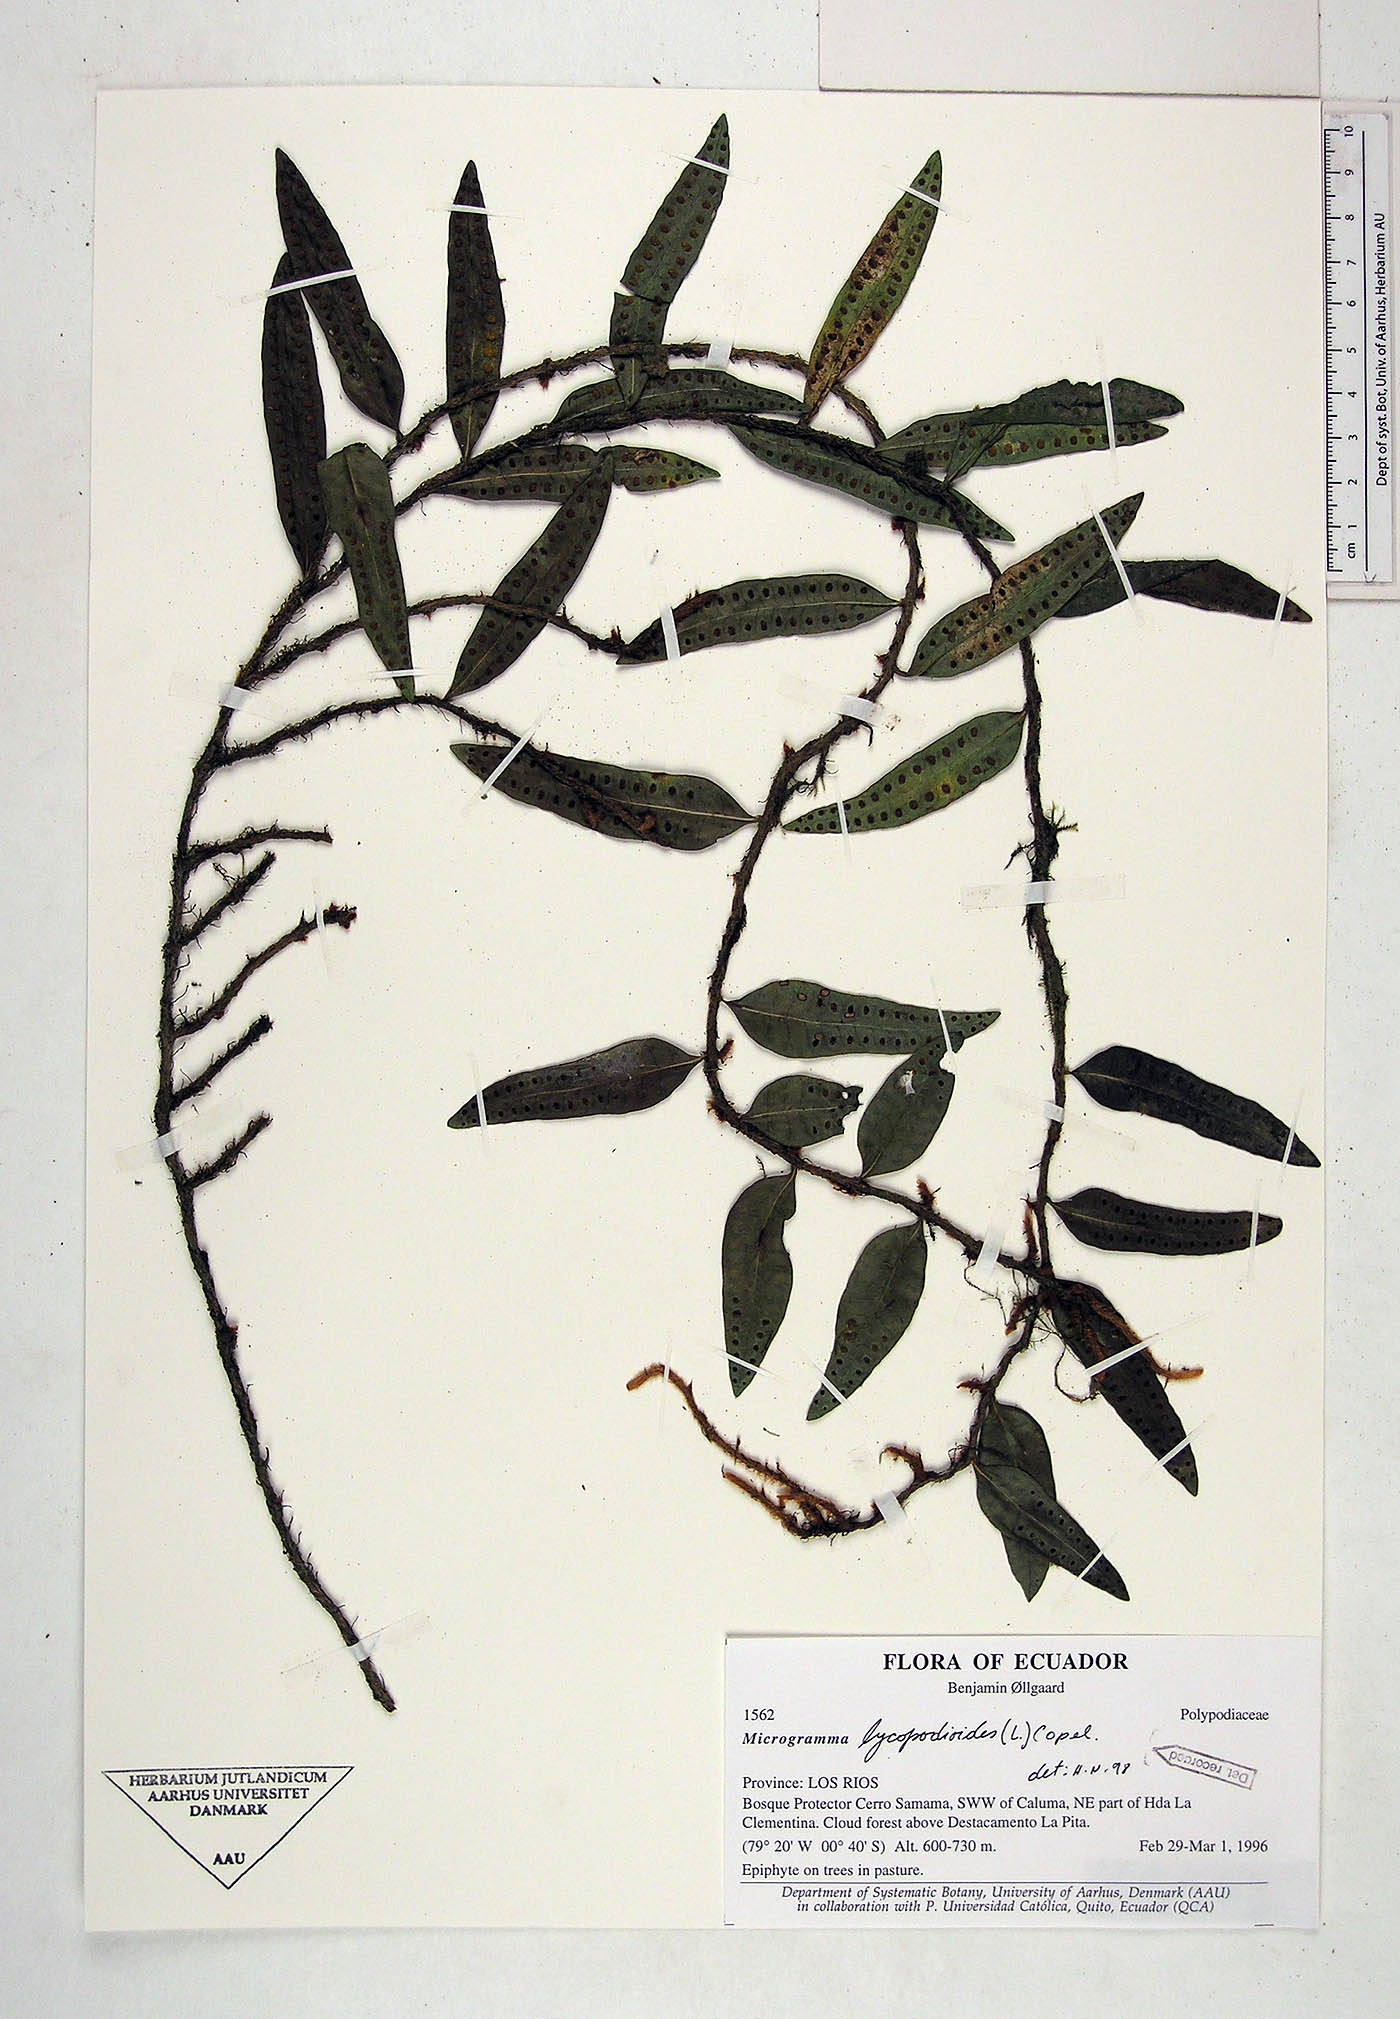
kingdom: Plantae
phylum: Tracheophyta
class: Polypodiopsida
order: Polypodiales
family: Polypodiaceae
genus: Microgramma
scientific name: Microgramma lycopodioides
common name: Bastard catclaw
